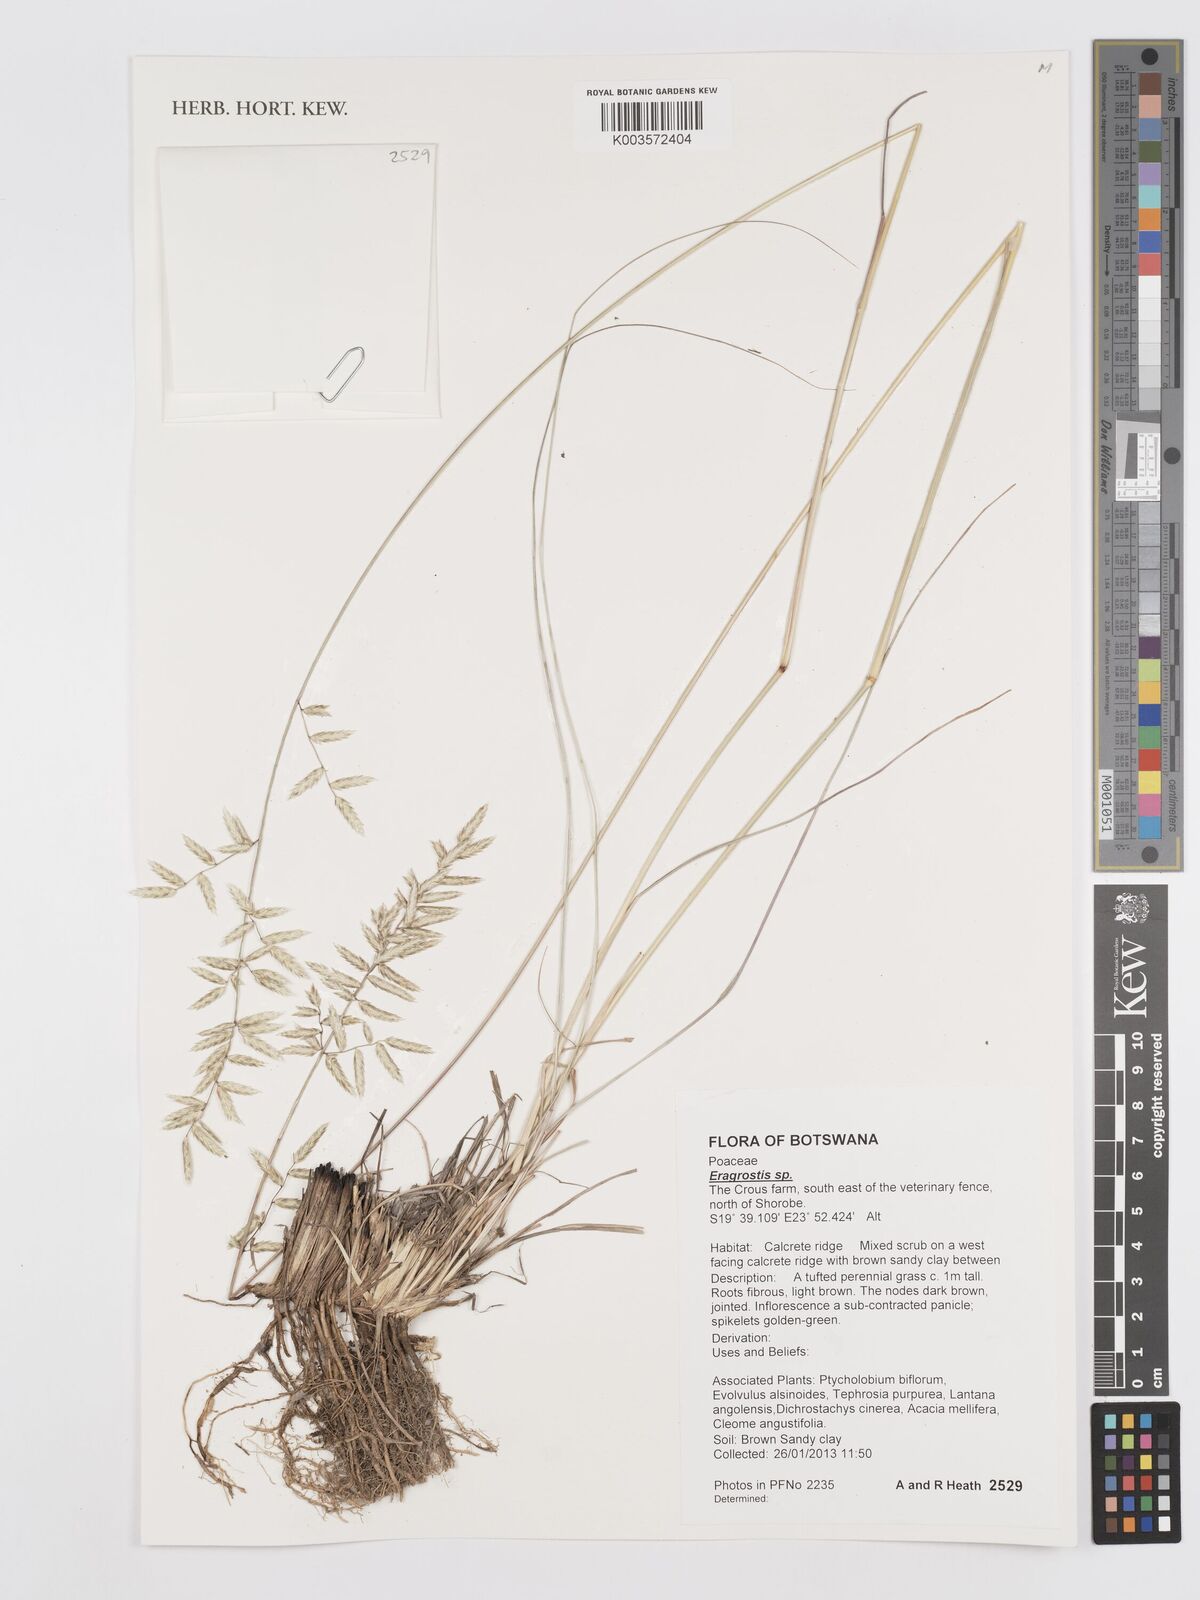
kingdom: Plantae
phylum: Tracheophyta
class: Liliopsida
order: Poales
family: Poaceae
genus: Eragrostis
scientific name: Eragrostis
